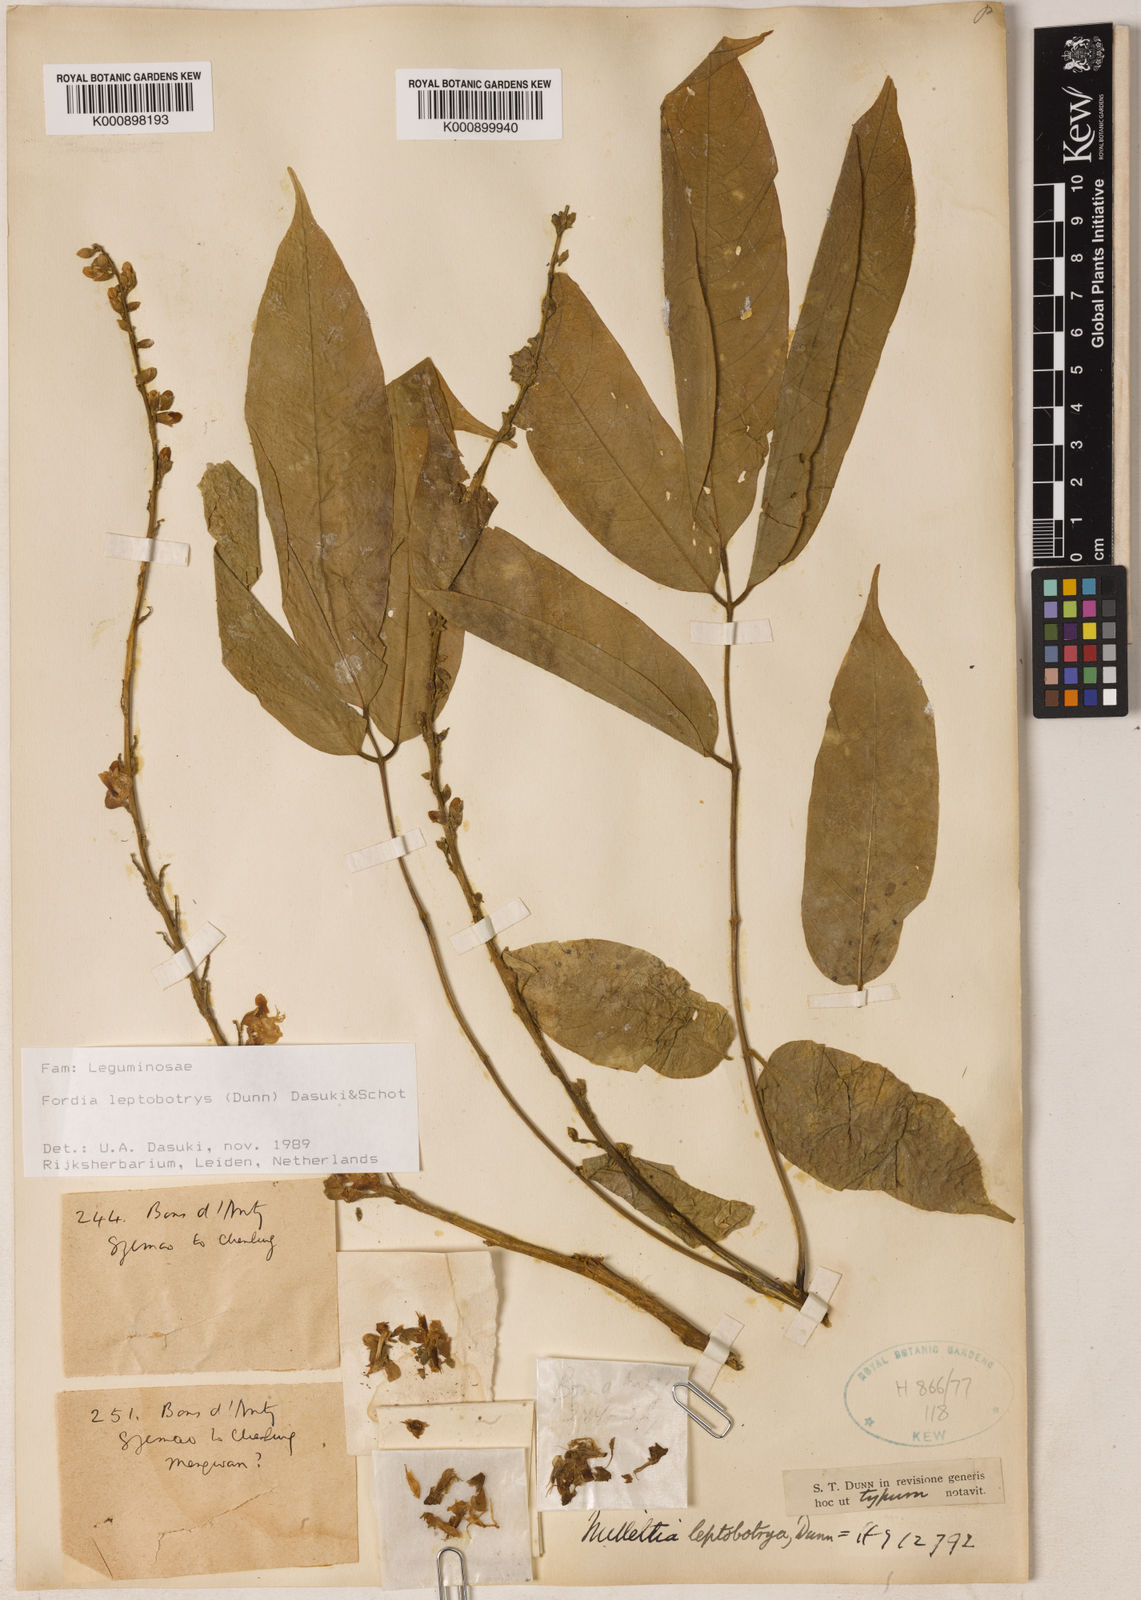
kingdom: Plantae
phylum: Tracheophyta
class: Magnoliopsida
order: Fabales
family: Fabaceae
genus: Fordia
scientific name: Fordia
